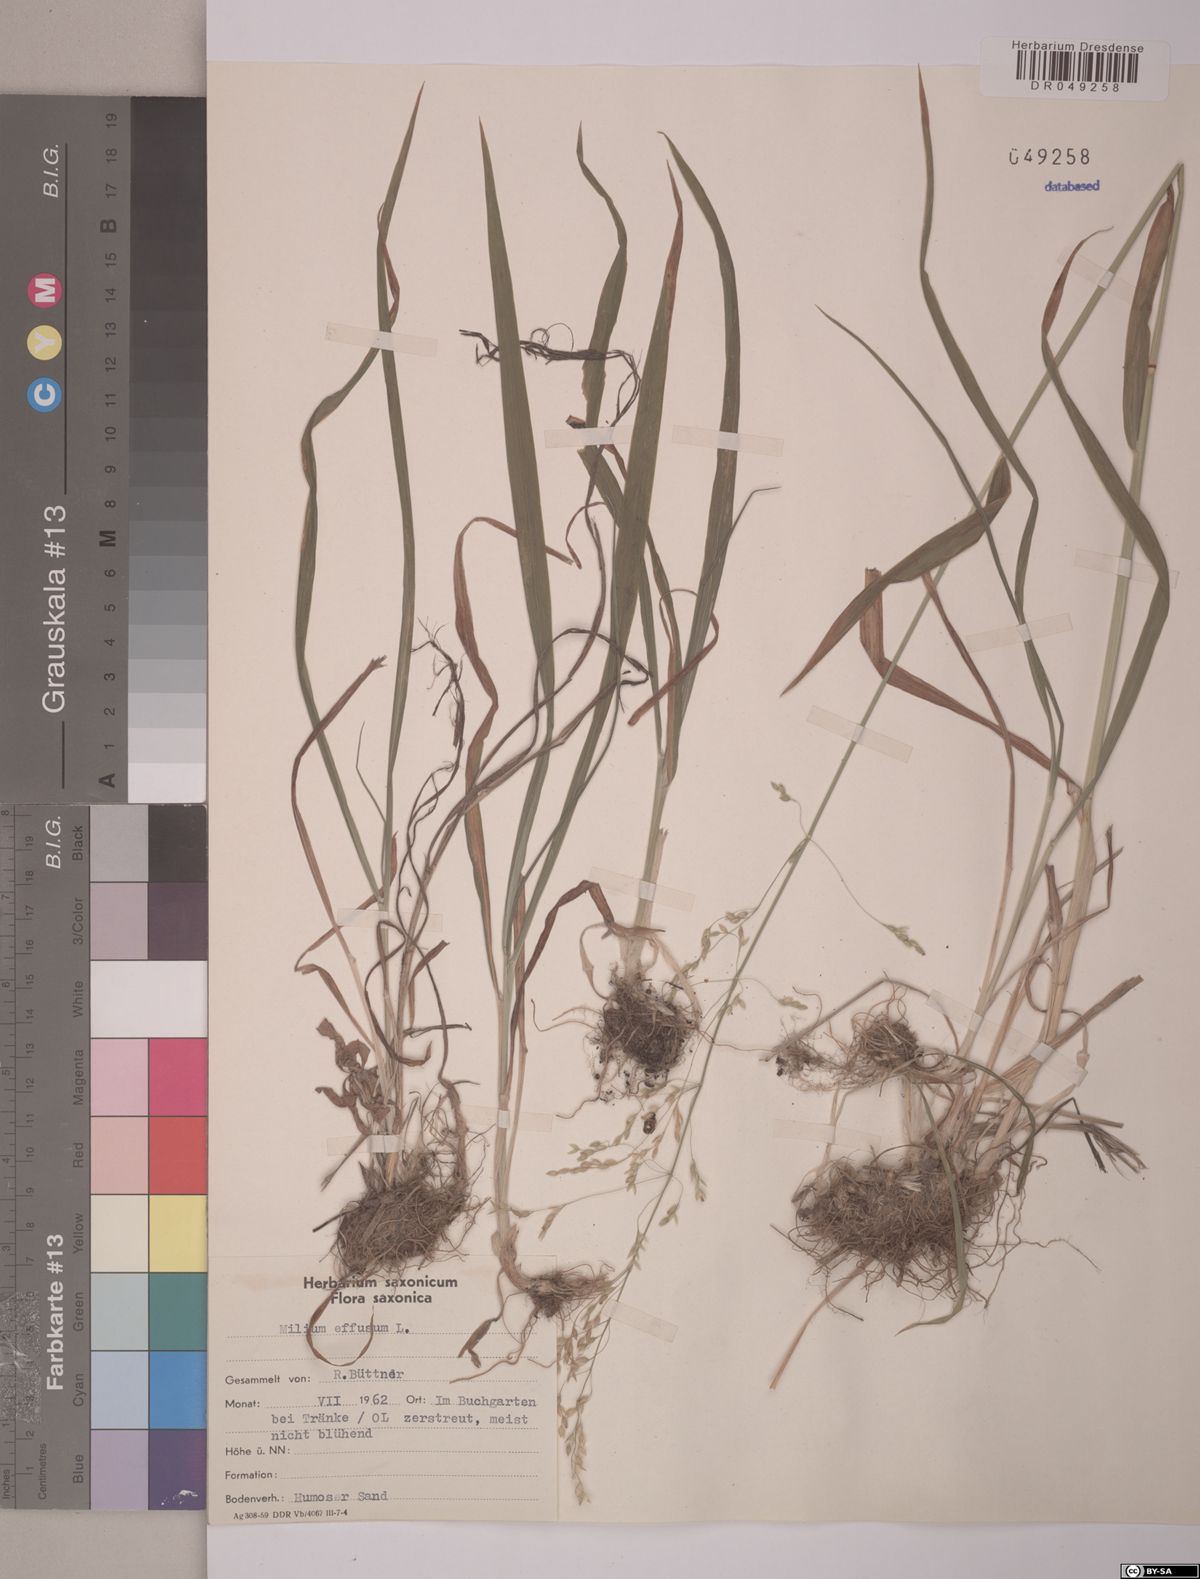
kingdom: Plantae
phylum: Tracheophyta
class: Liliopsida
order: Poales
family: Poaceae
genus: Milium
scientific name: Milium effusum
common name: Wood millet
